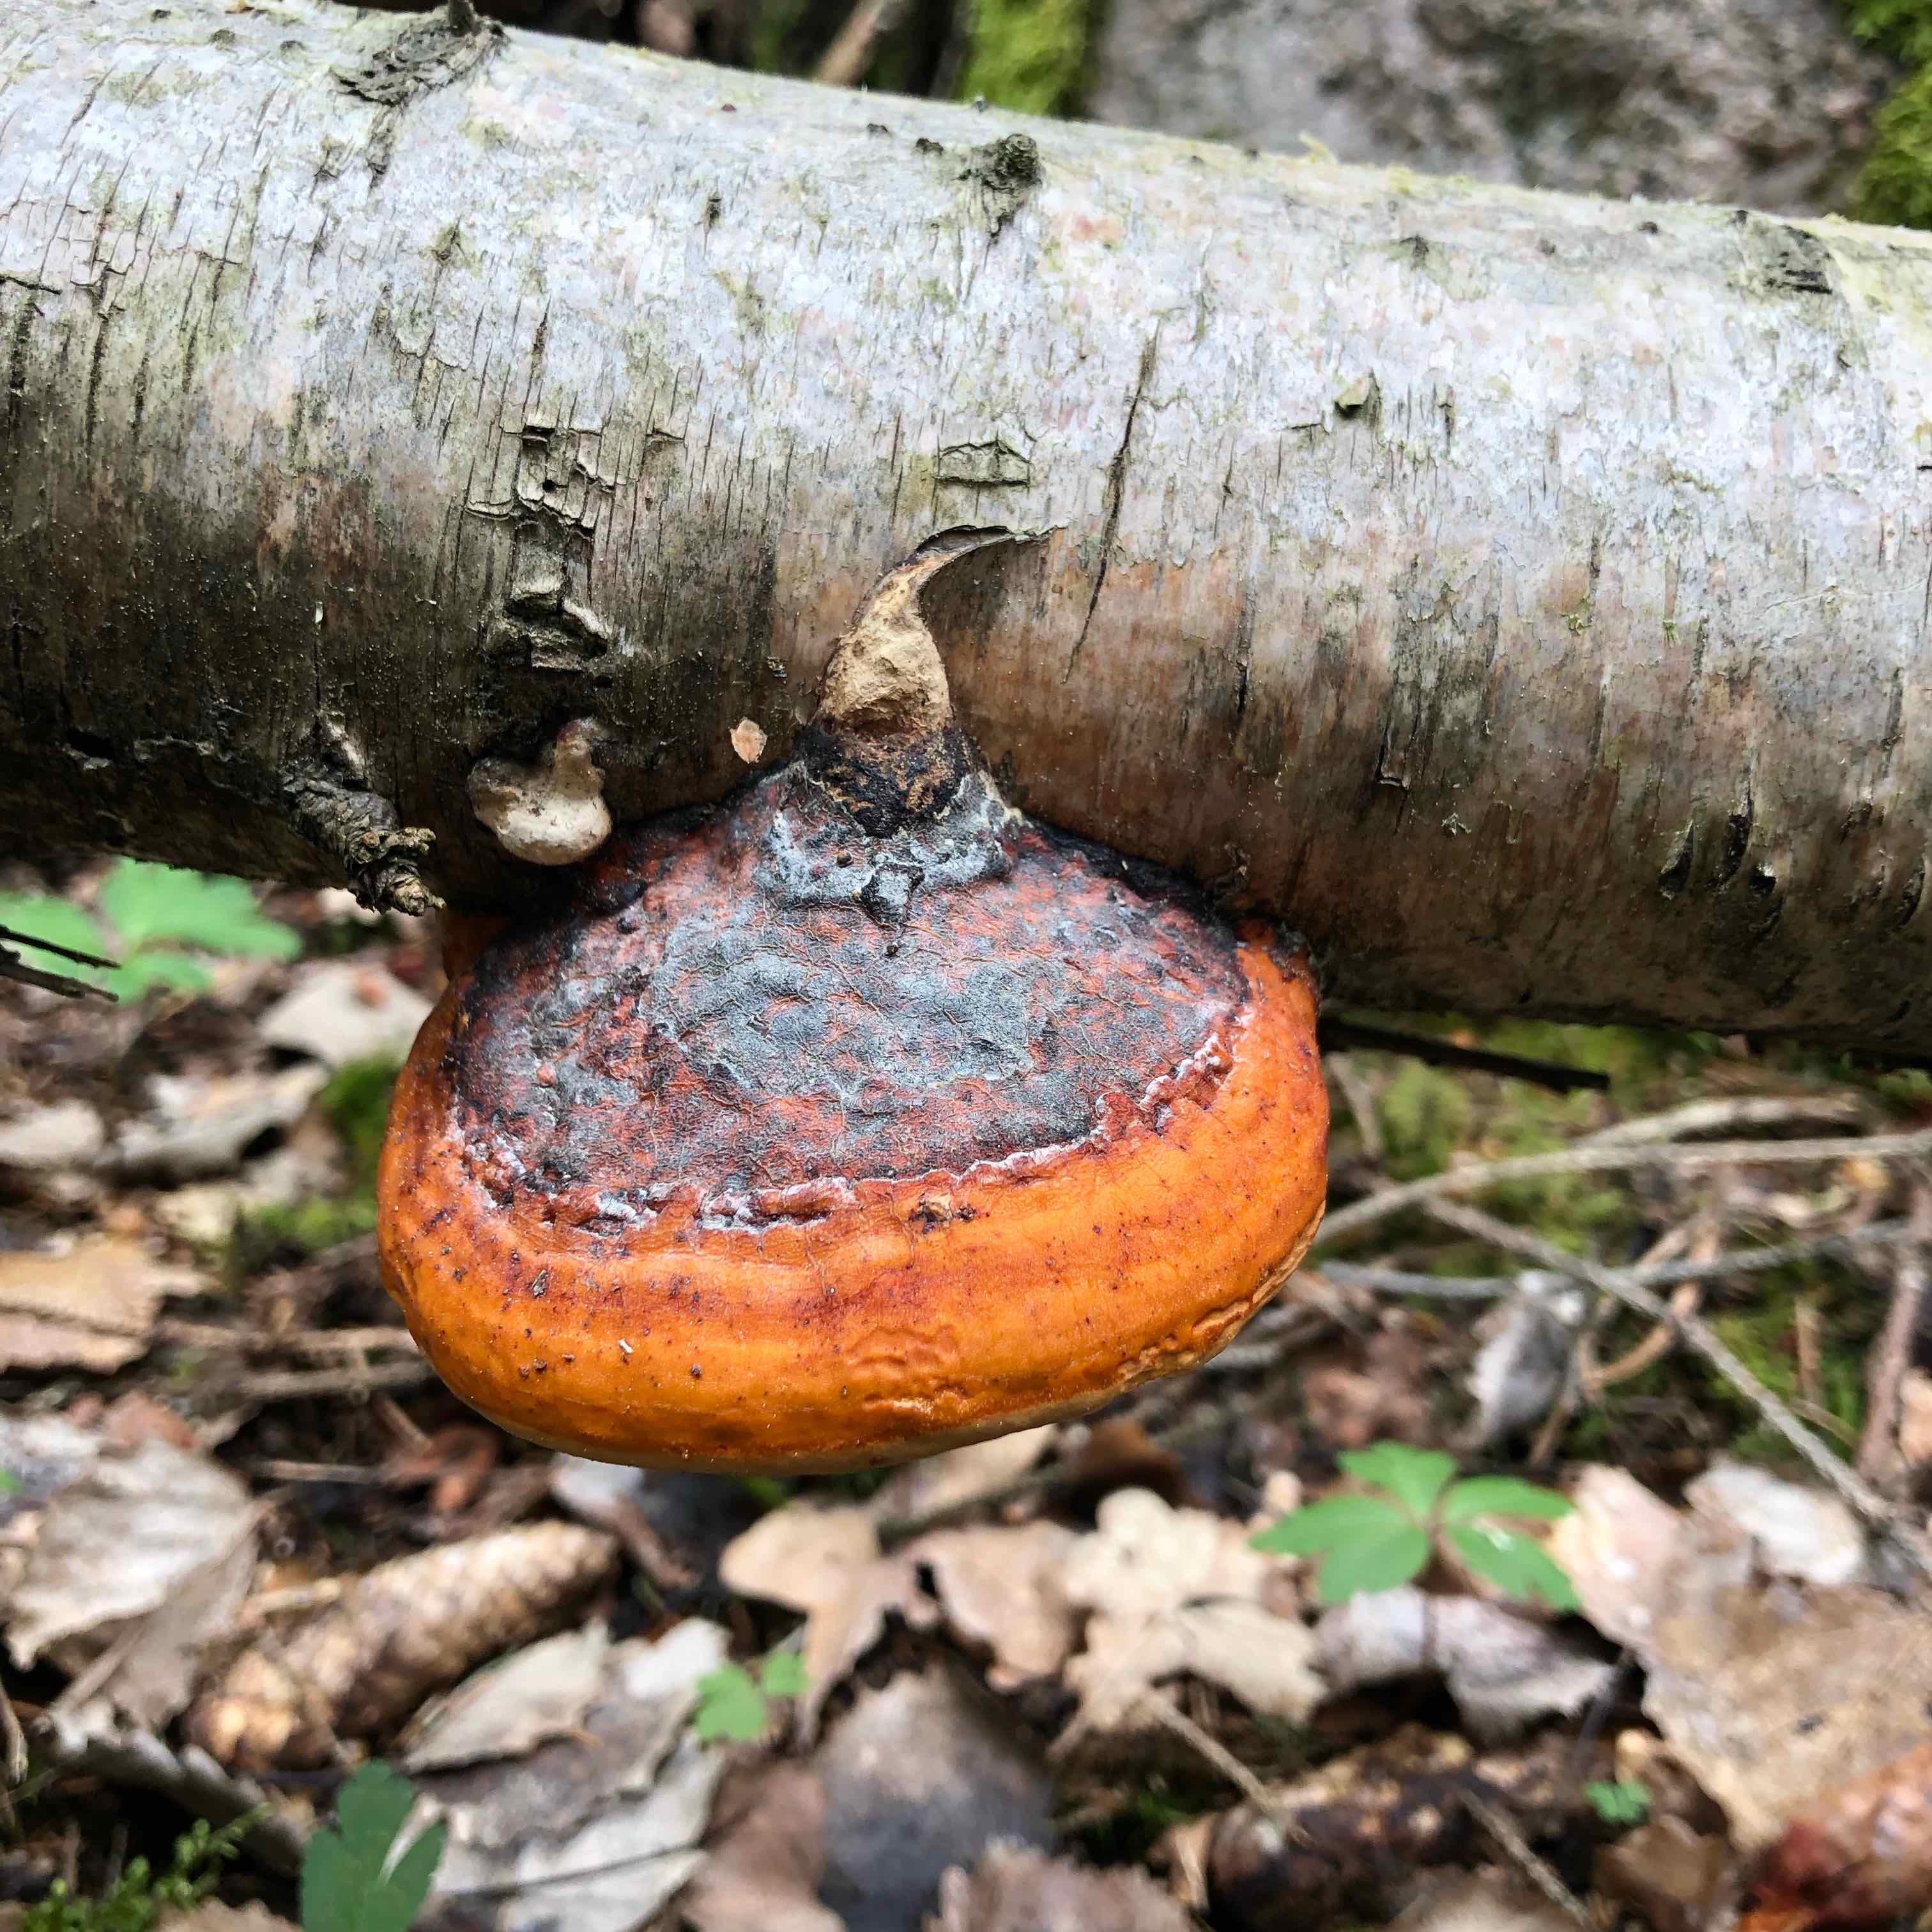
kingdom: Fungi
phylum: Basidiomycota
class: Agaricomycetes
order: Polyporales
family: Fomitopsidaceae
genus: Fomitopsis
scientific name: Fomitopsis pinicola
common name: randbæltet hovporesvamp
